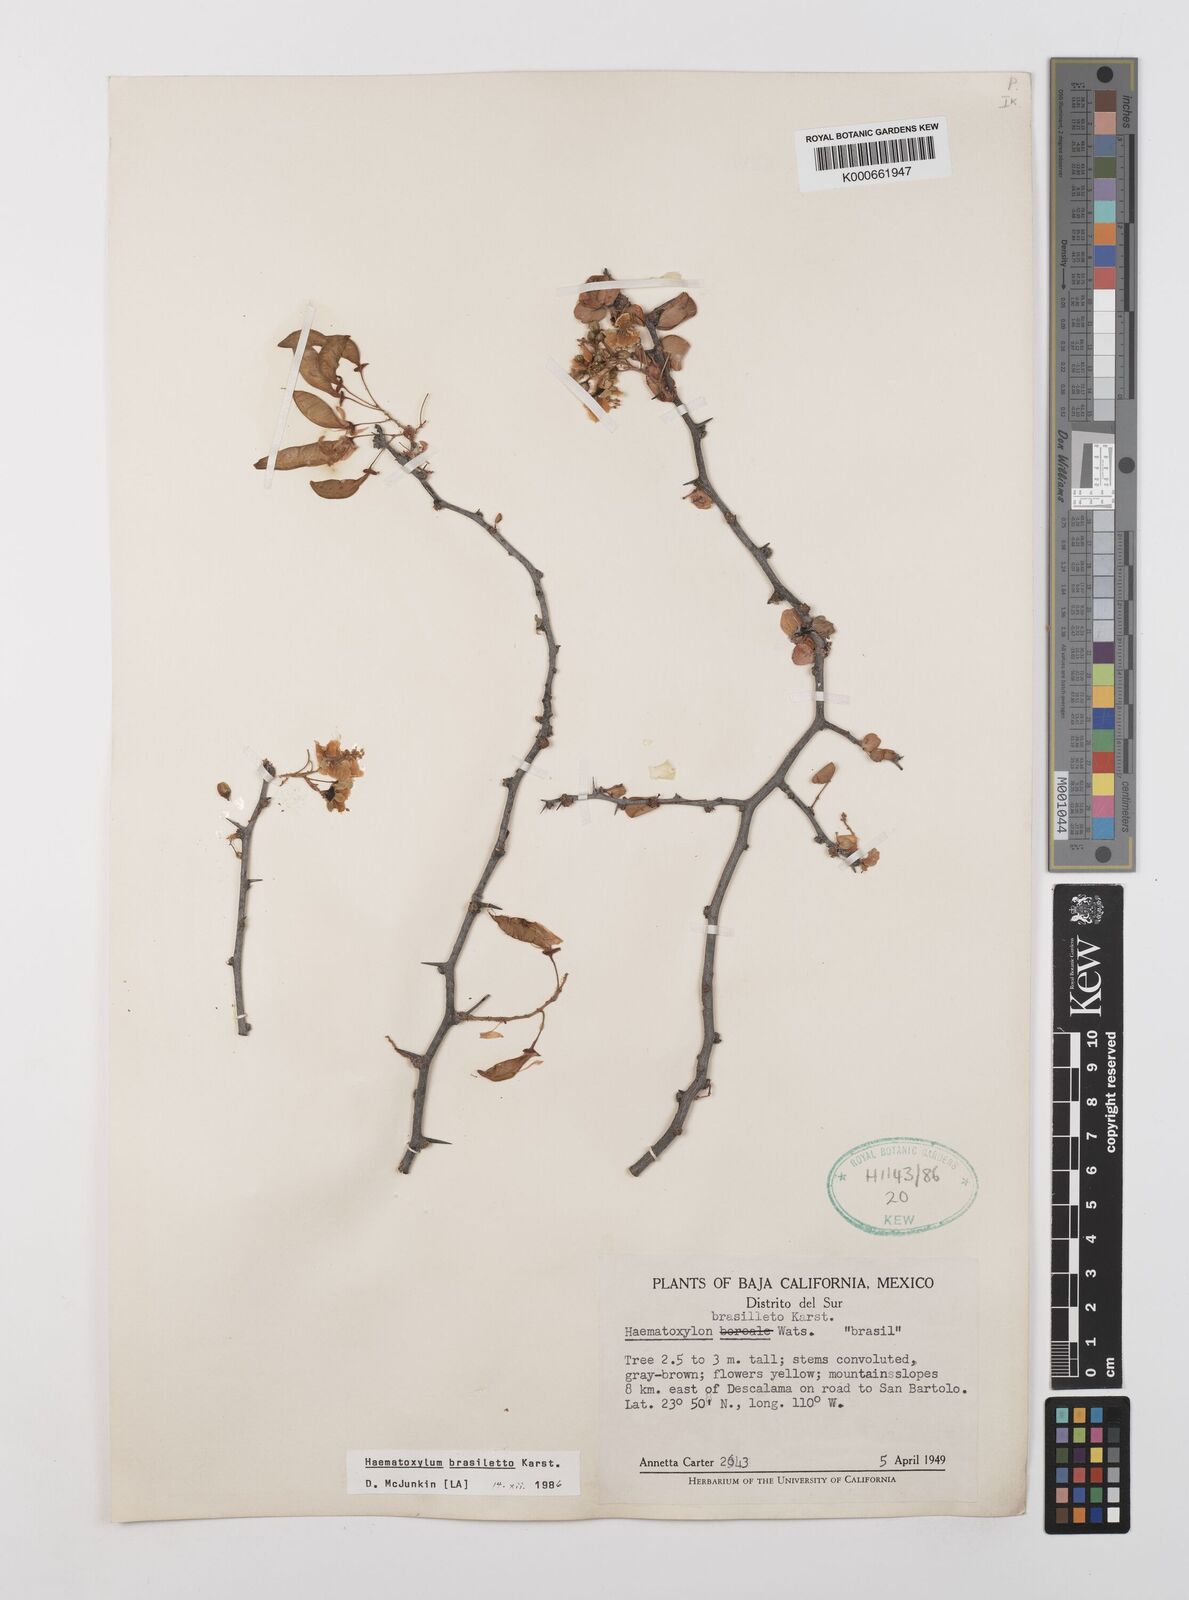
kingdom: Plantae
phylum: Tracheophyta
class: Magnoliopsida
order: Fabales
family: Fabaceae
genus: Haematoxylum
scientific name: Haematoxylum brasiletto
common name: Peachwood
